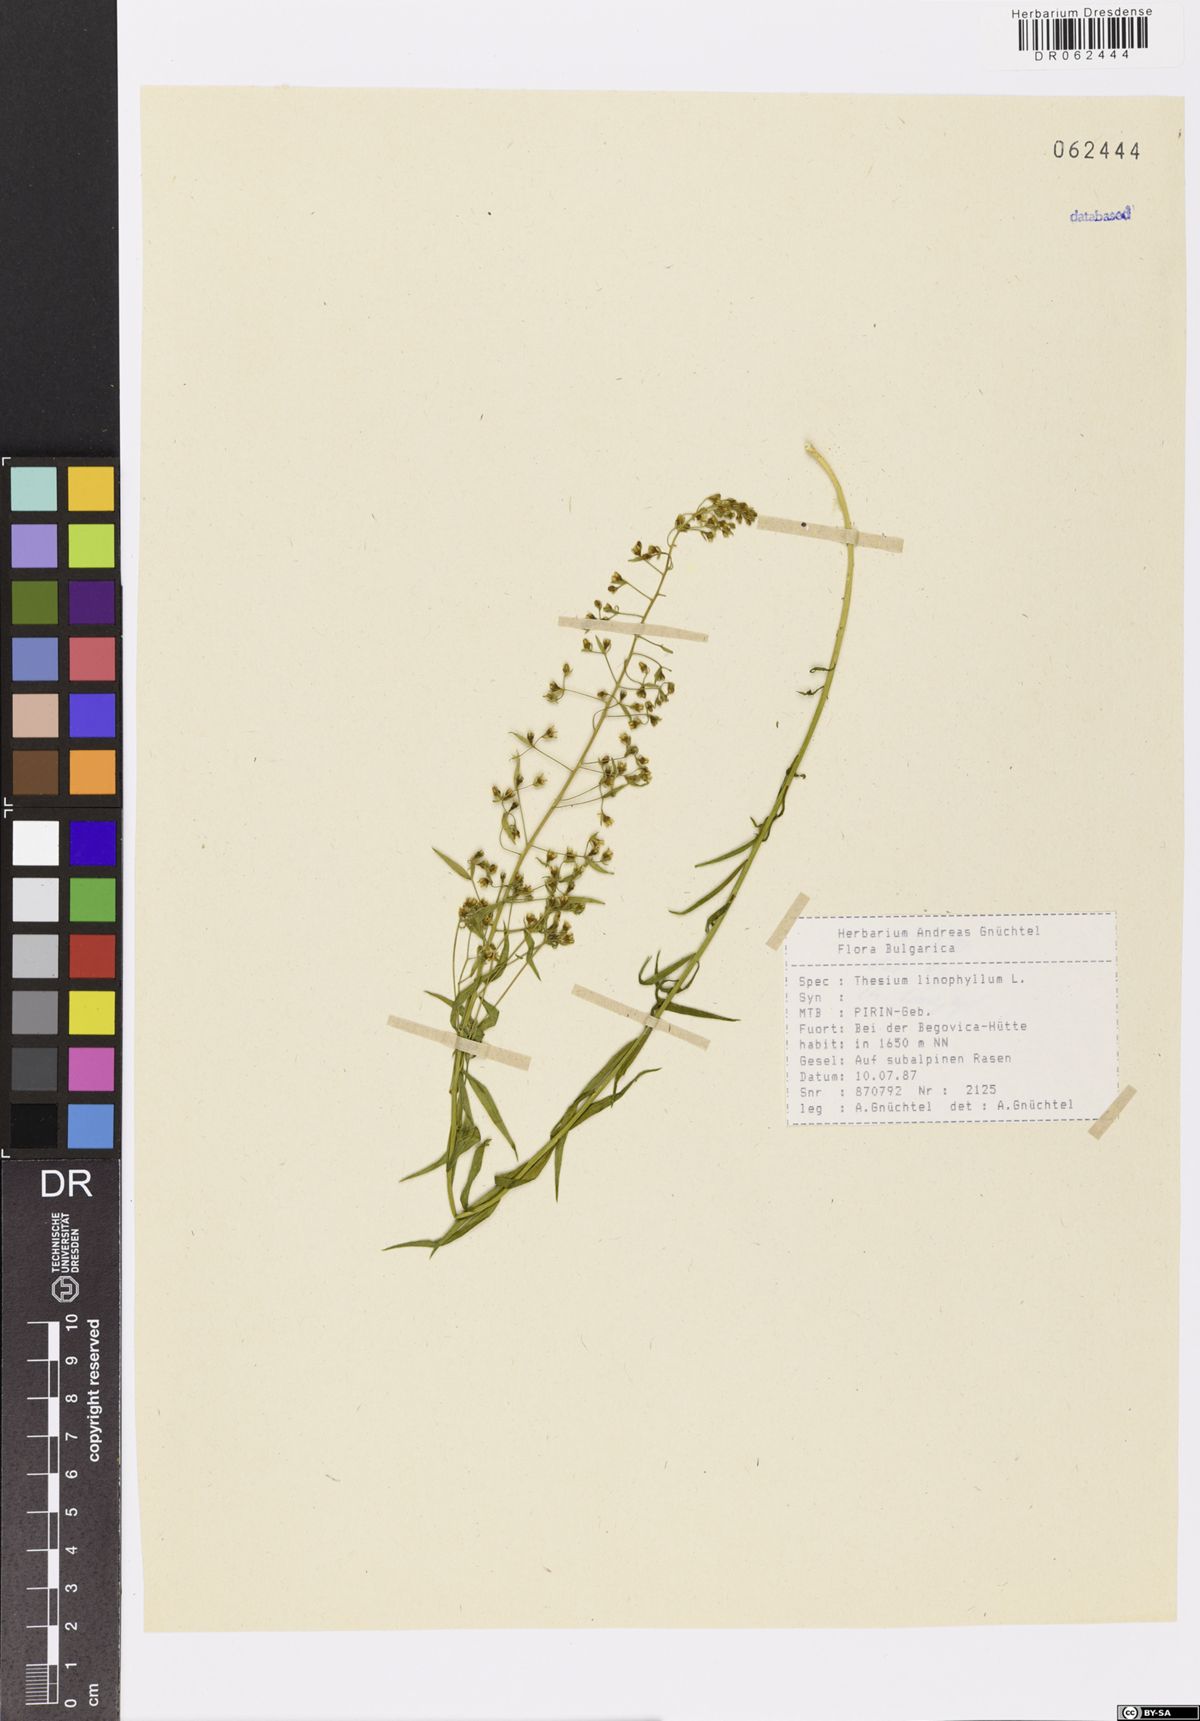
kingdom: Plantae
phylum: Tracheophyta
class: Magnoliopsida
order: Santalales
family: Thesiaceae
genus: Thesium
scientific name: Thesium linophyllon
